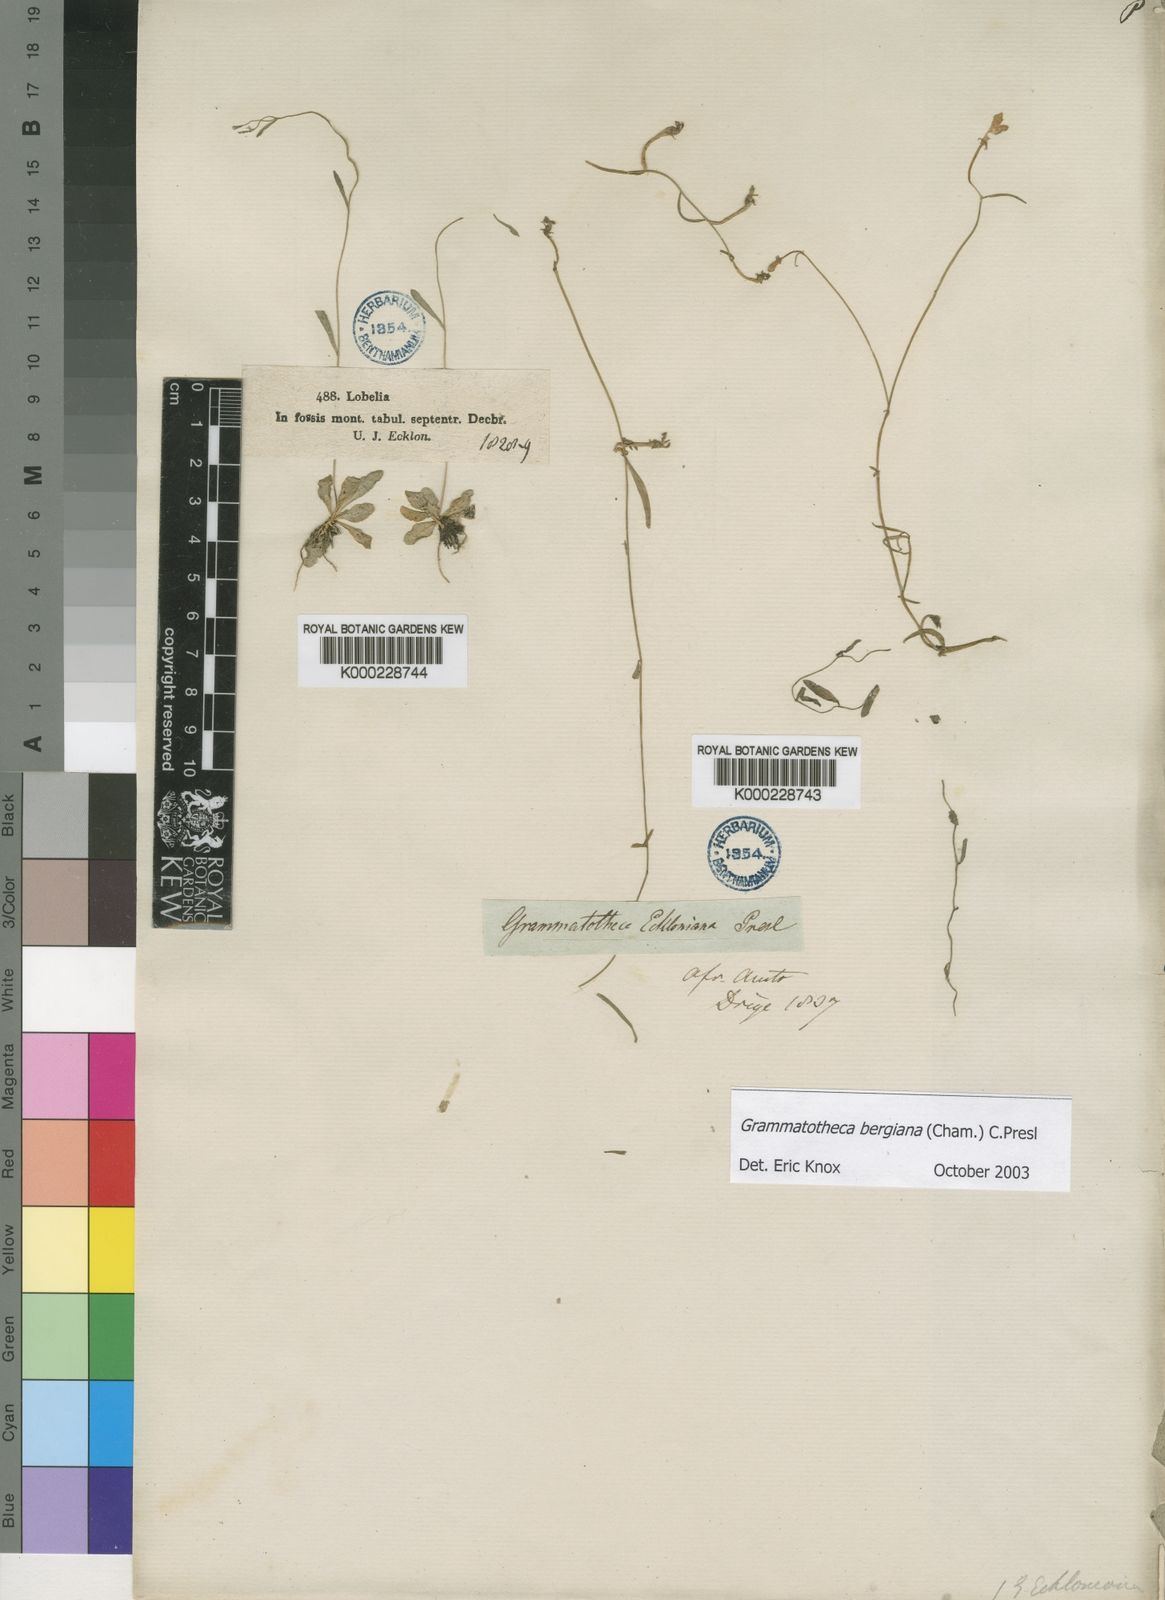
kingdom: Plantae
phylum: Tracheophyta
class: Magnoliopsida
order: Asterales
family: Campanulaceae
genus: Grammatotheca
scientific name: Grammatotheca bergiana
